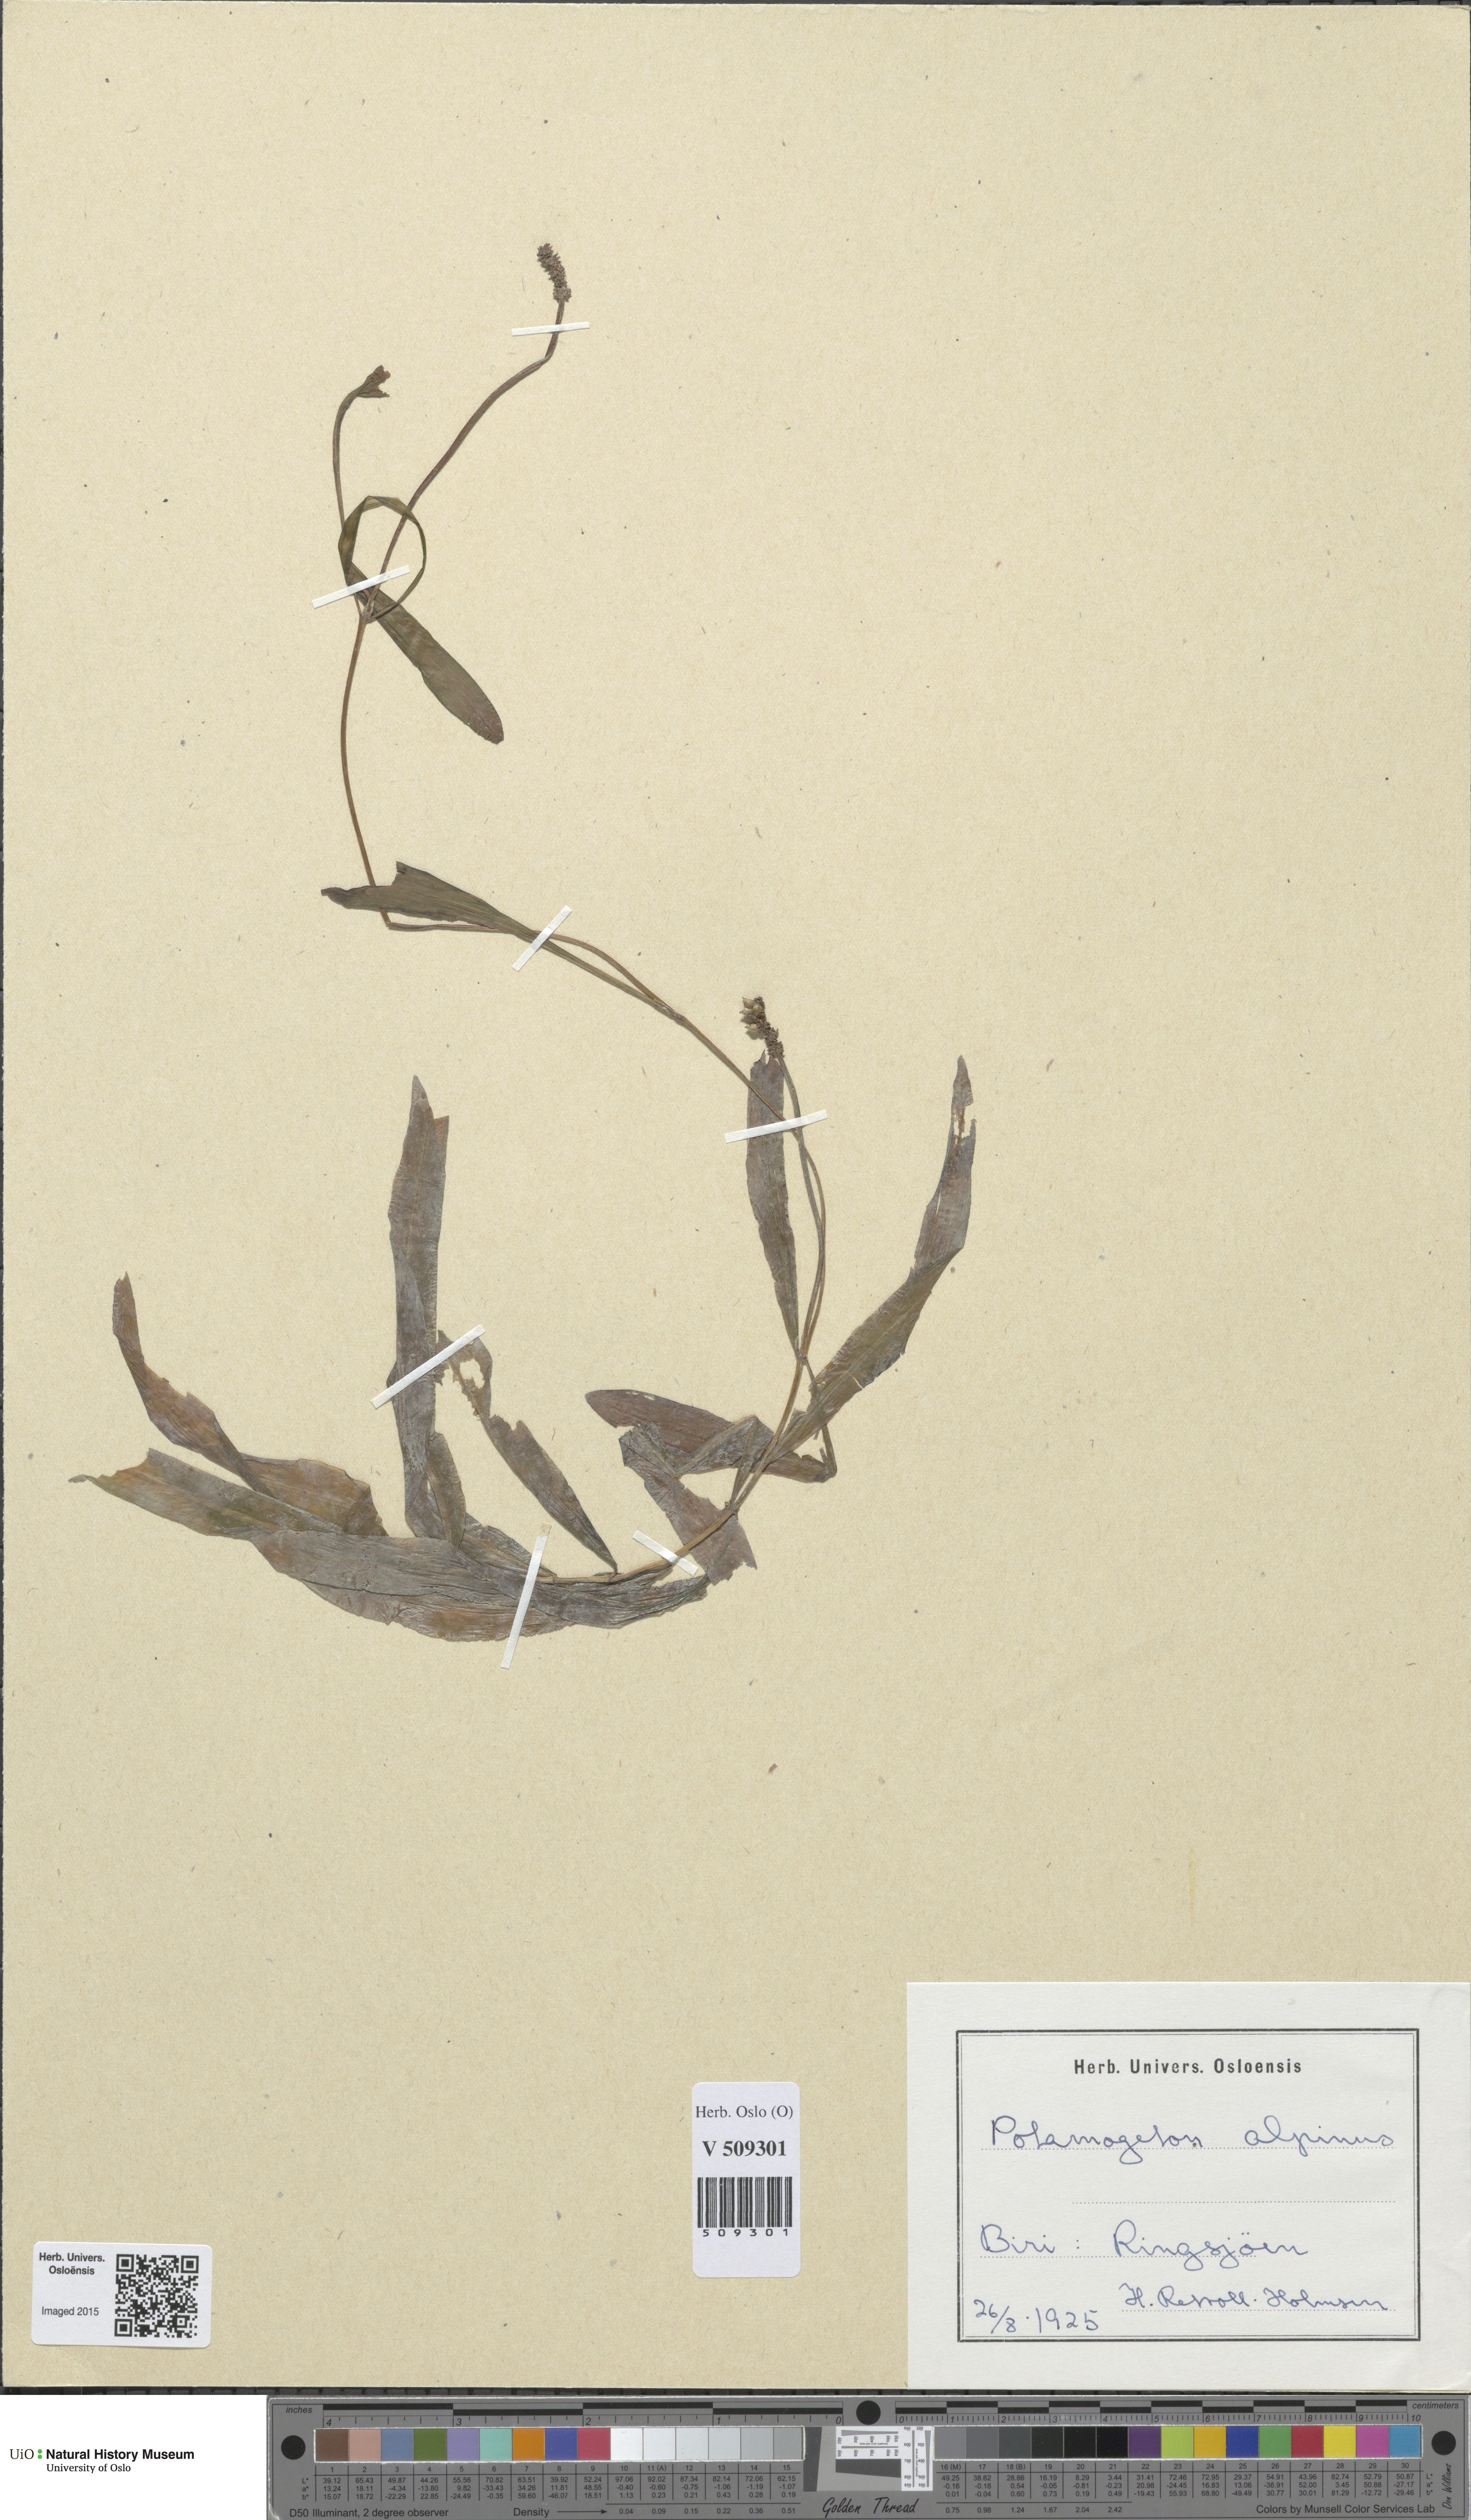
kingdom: Plantae
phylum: Tracheophyta
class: Liliopsida
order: Alismatales
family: Potamogetonaceae
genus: Potamogeton
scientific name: Potamogeton alpinus
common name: Red pondweed
